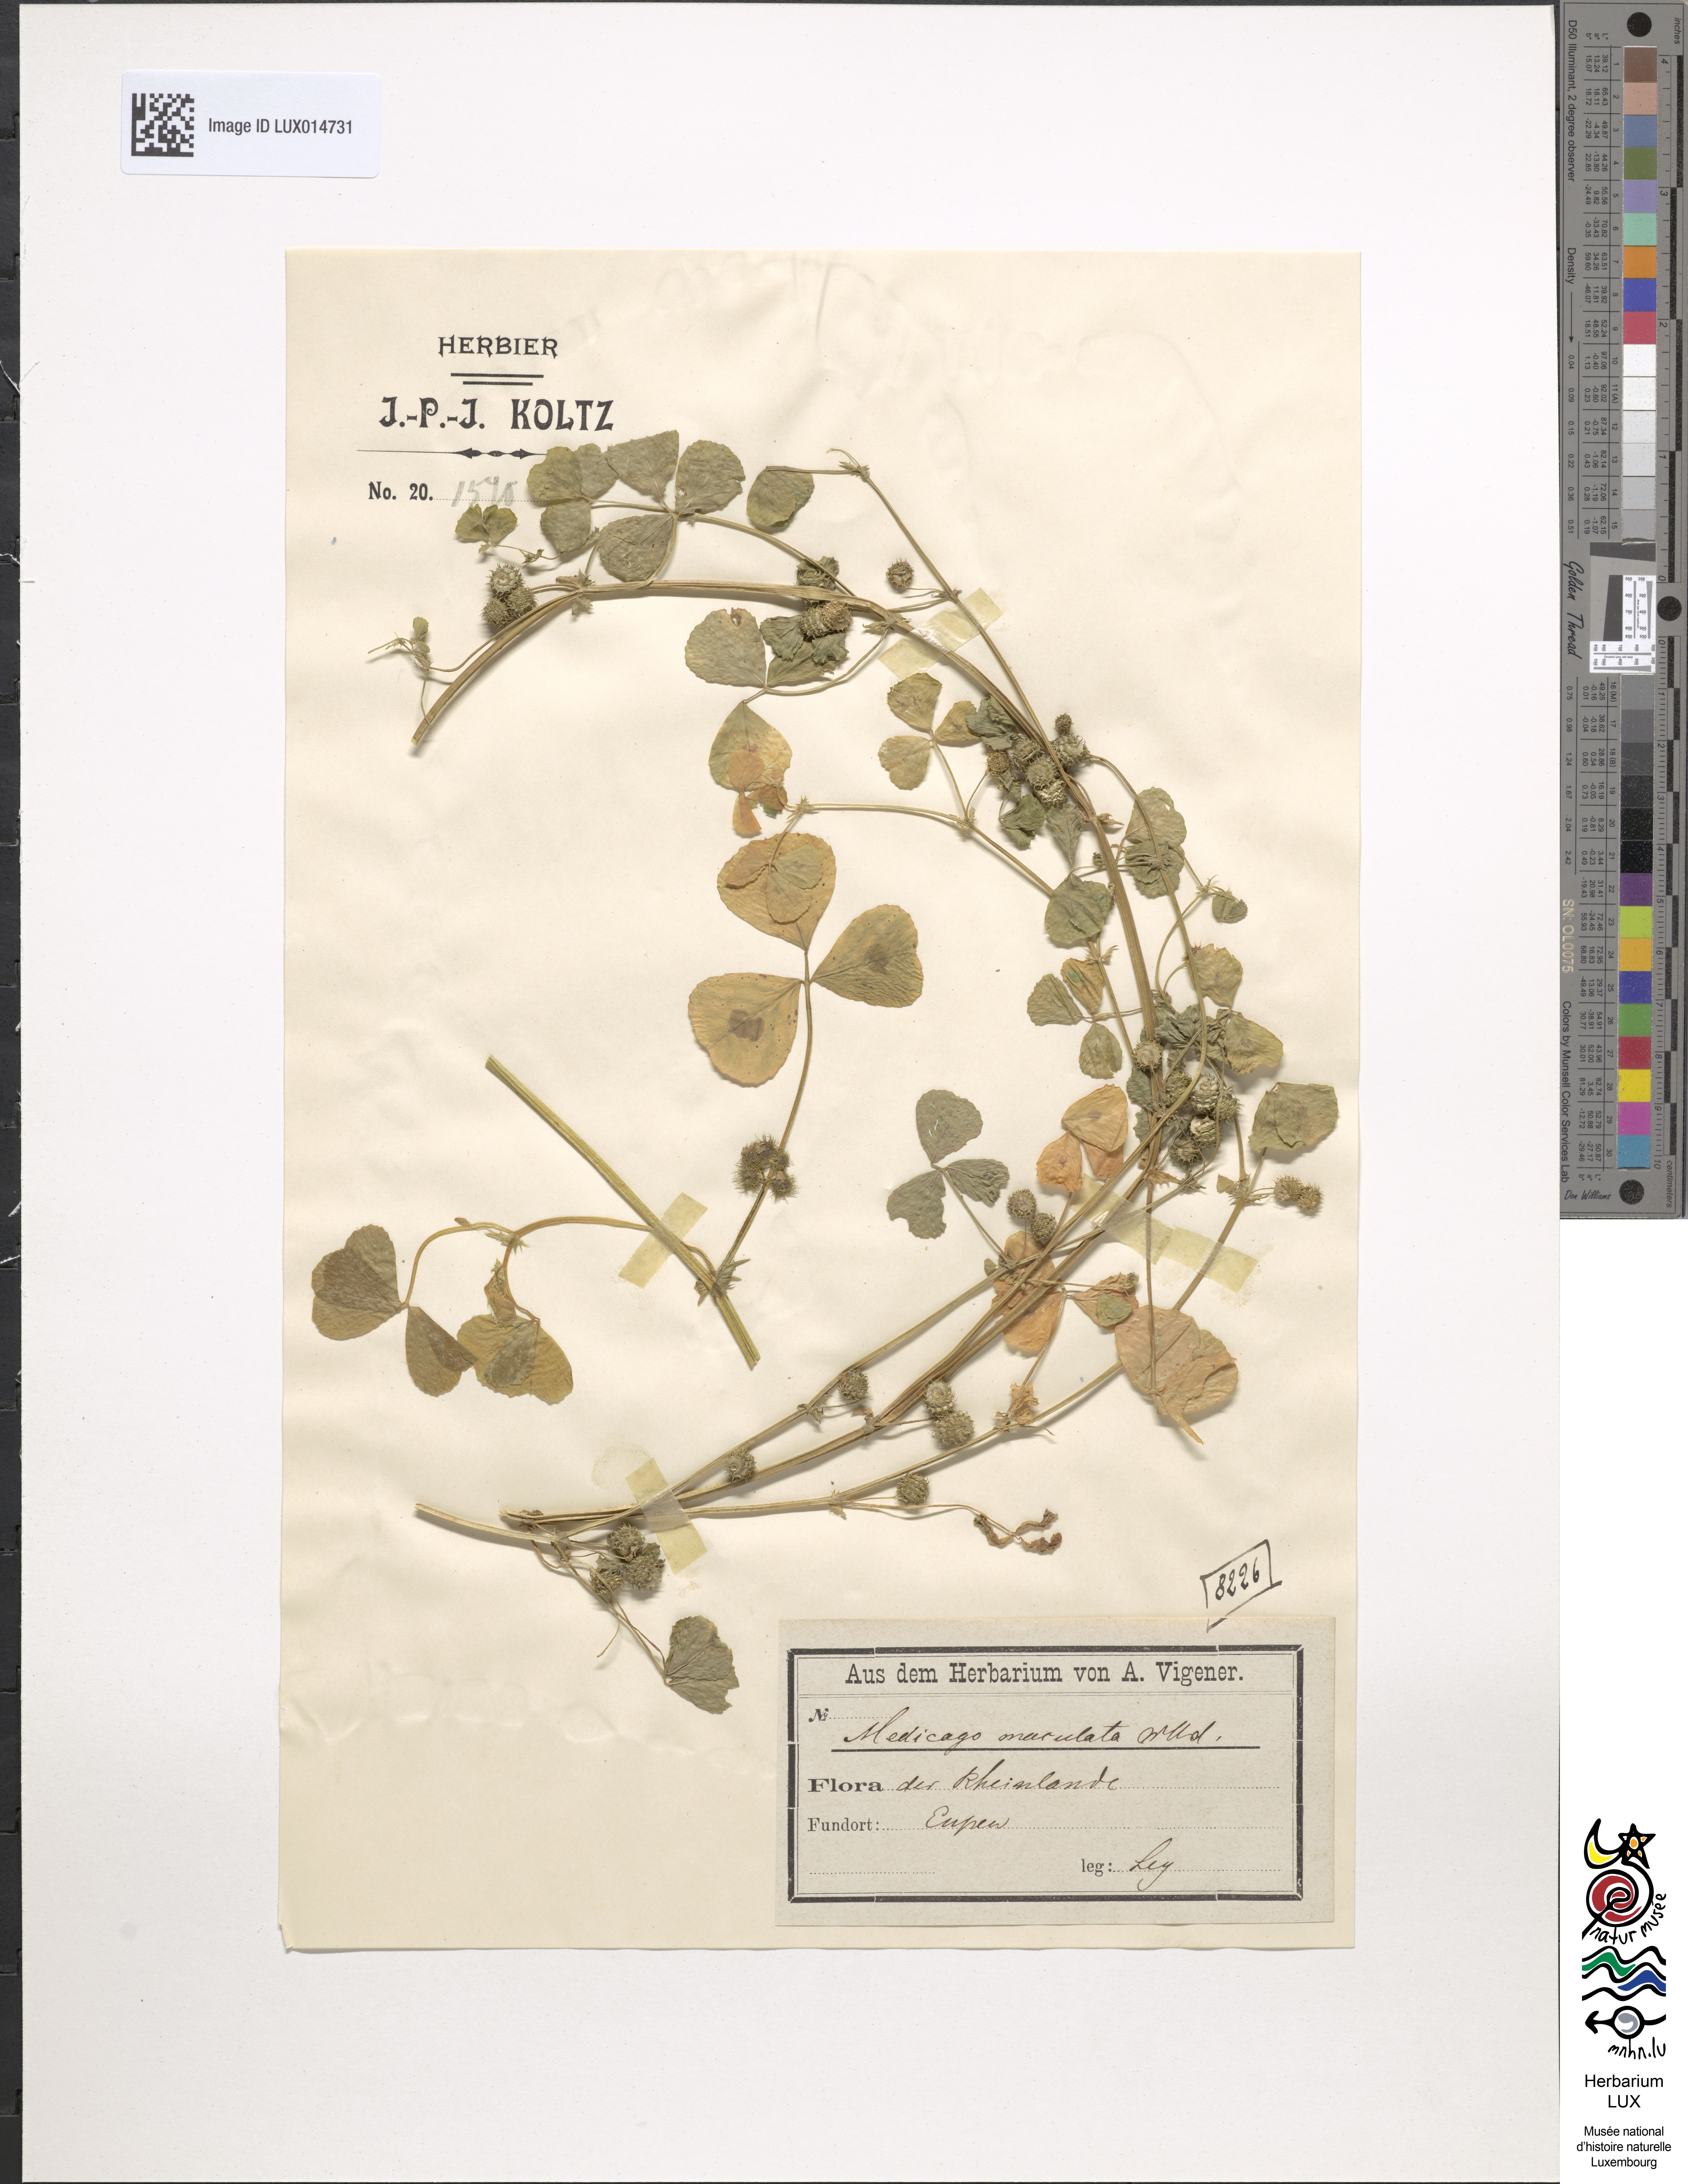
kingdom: Plantae
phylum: Tracheophyta
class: Magnoliopsida
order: Fabales
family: Fabaceae
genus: Medicago
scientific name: Medicago arabica
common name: Spotted medick
